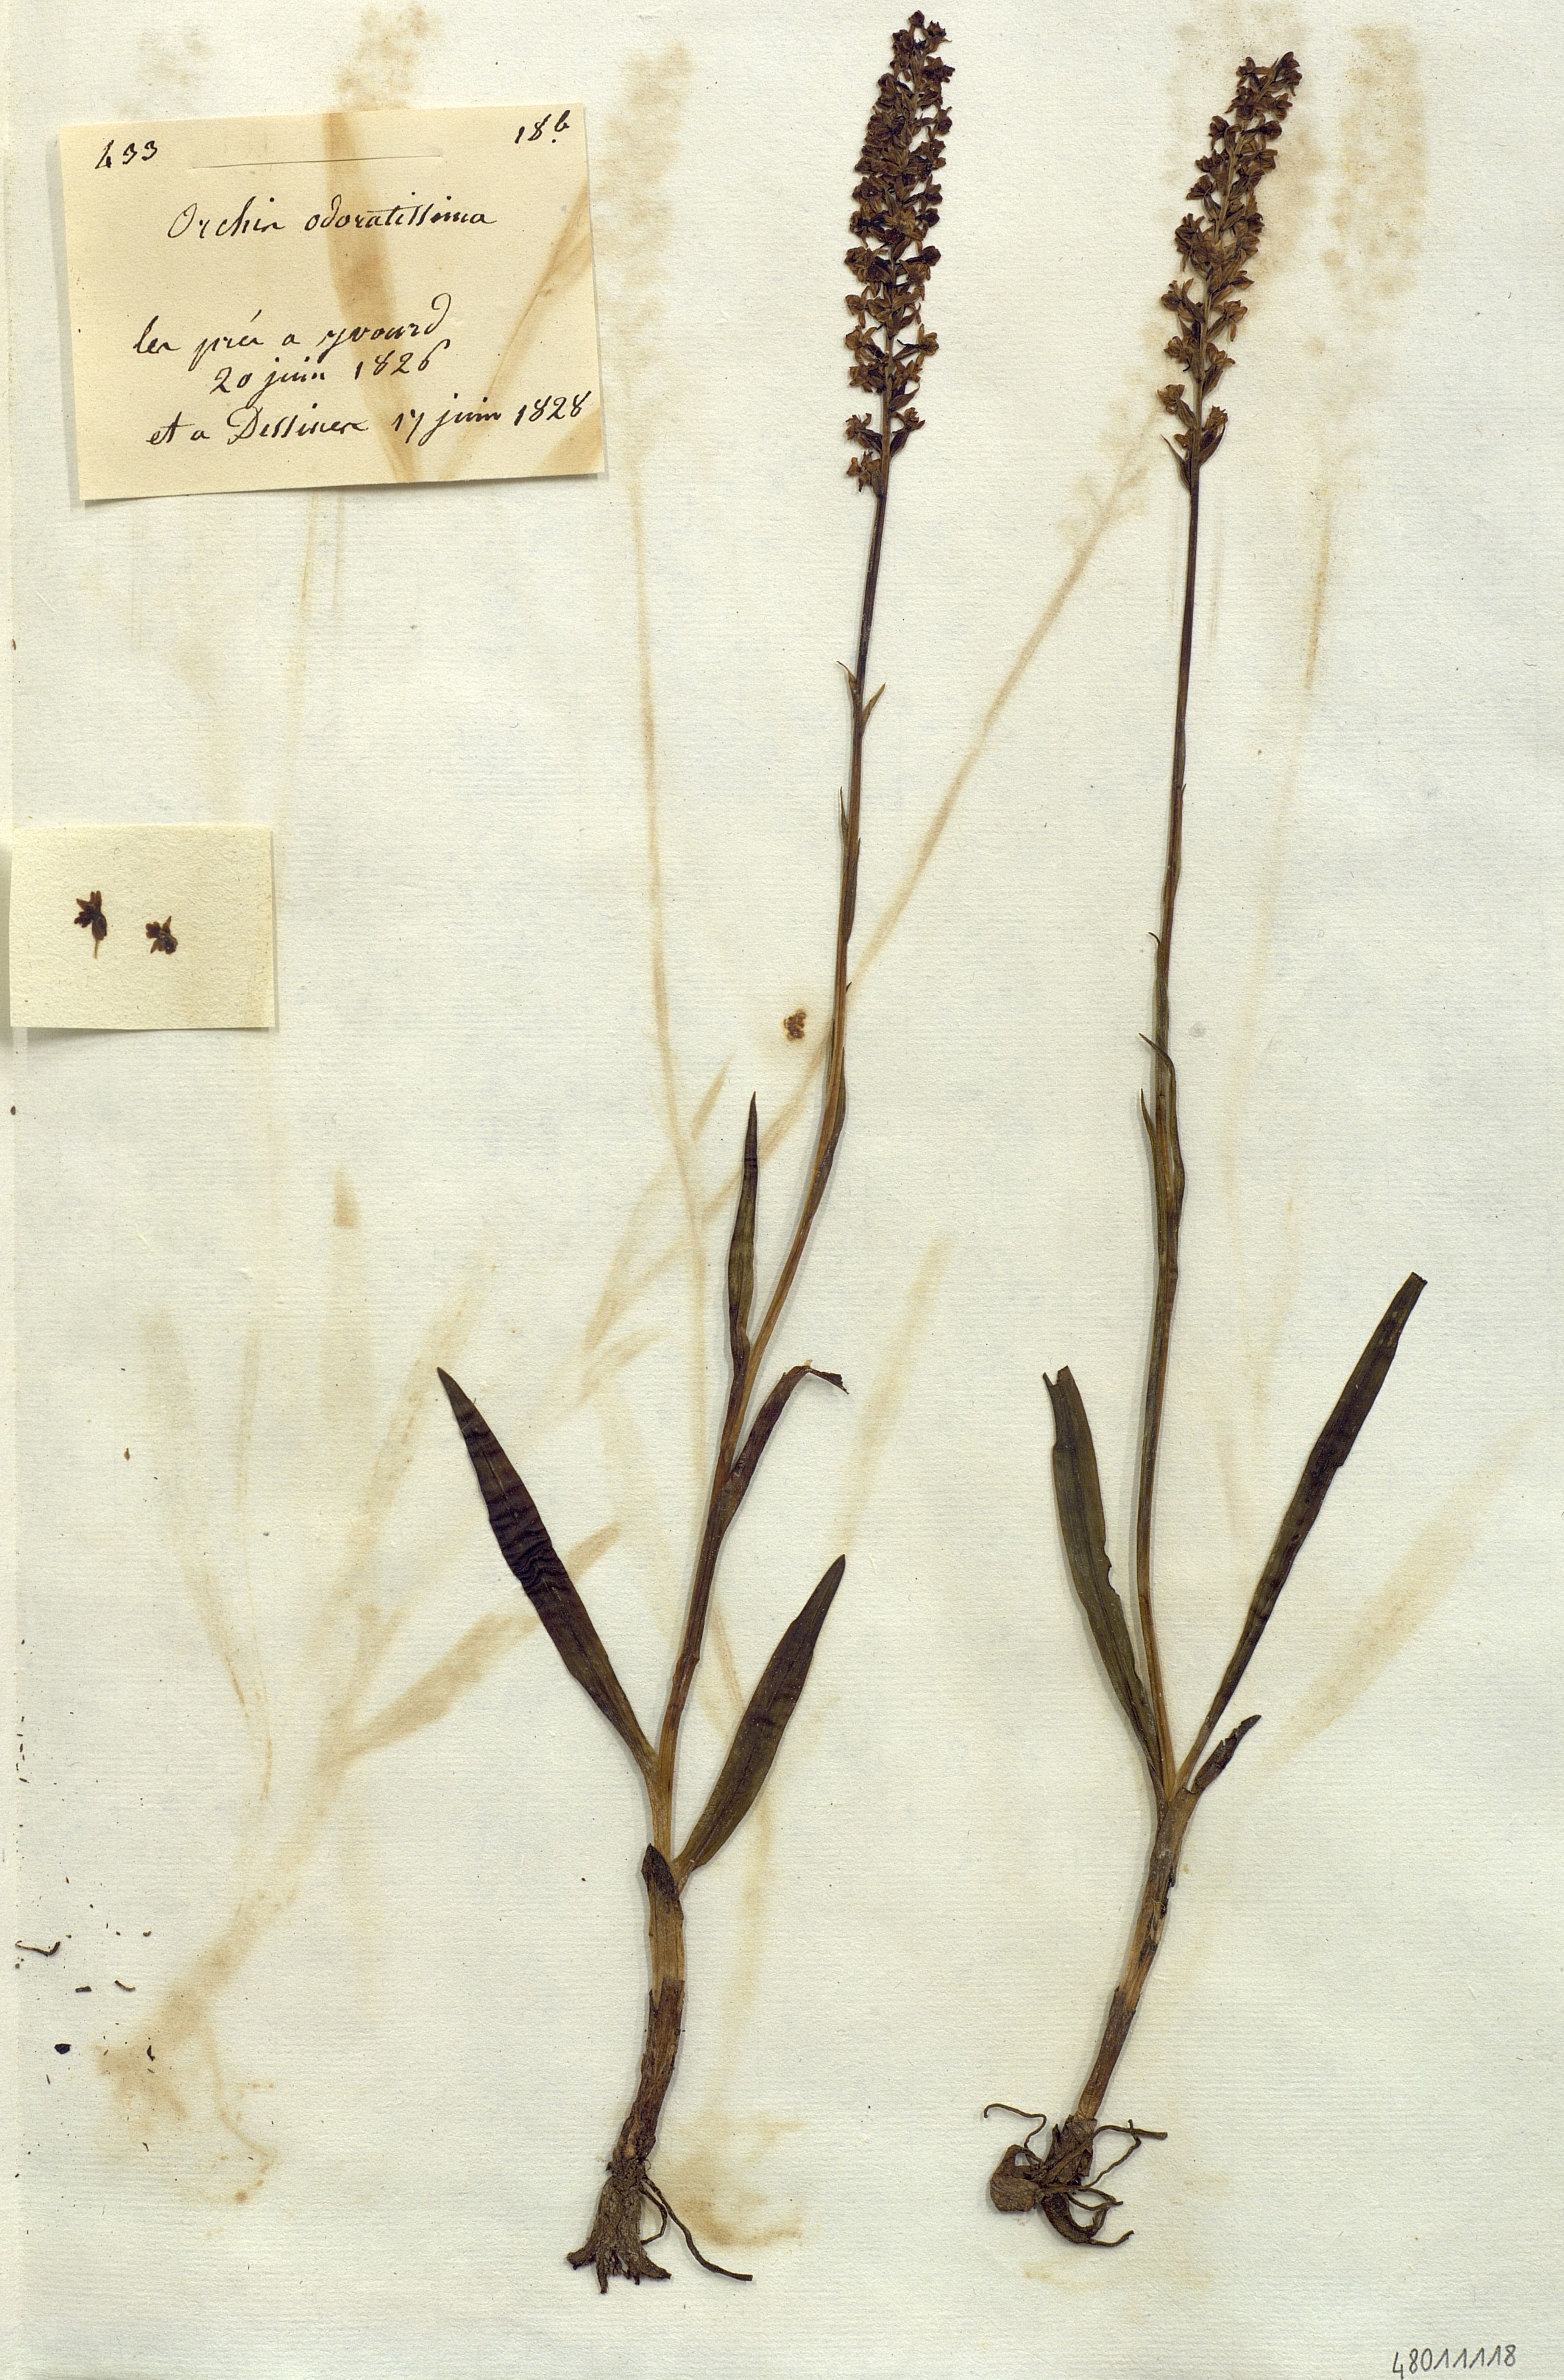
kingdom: Plantae
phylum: Tracheophyta
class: Liliopsida
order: Asparagales
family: Orchidaceae
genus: Gymnadenia
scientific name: Gymnadenia odoratissima
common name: Scented gymnadenia
